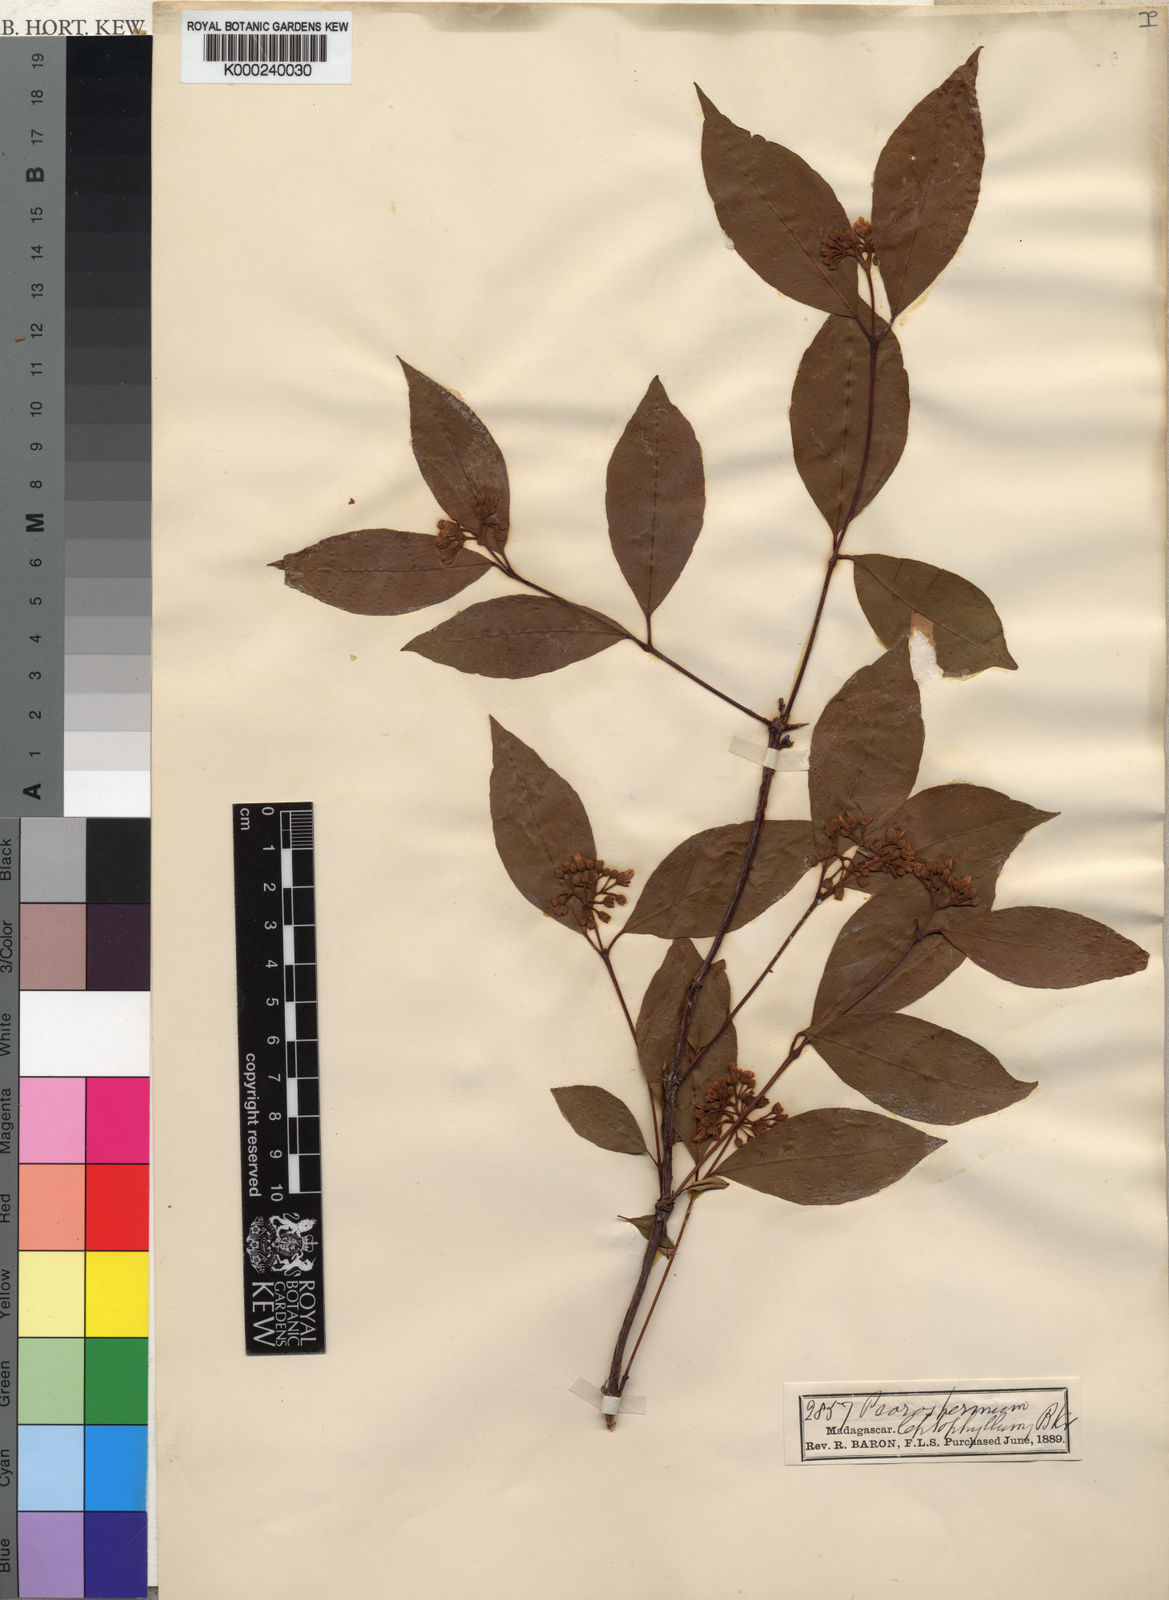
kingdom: Plantae
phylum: Tracheophyta
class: Magnoliopsida
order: Malpighiales
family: Hypericaceae
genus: Psorospermum
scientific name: Psorospermum crenatum
